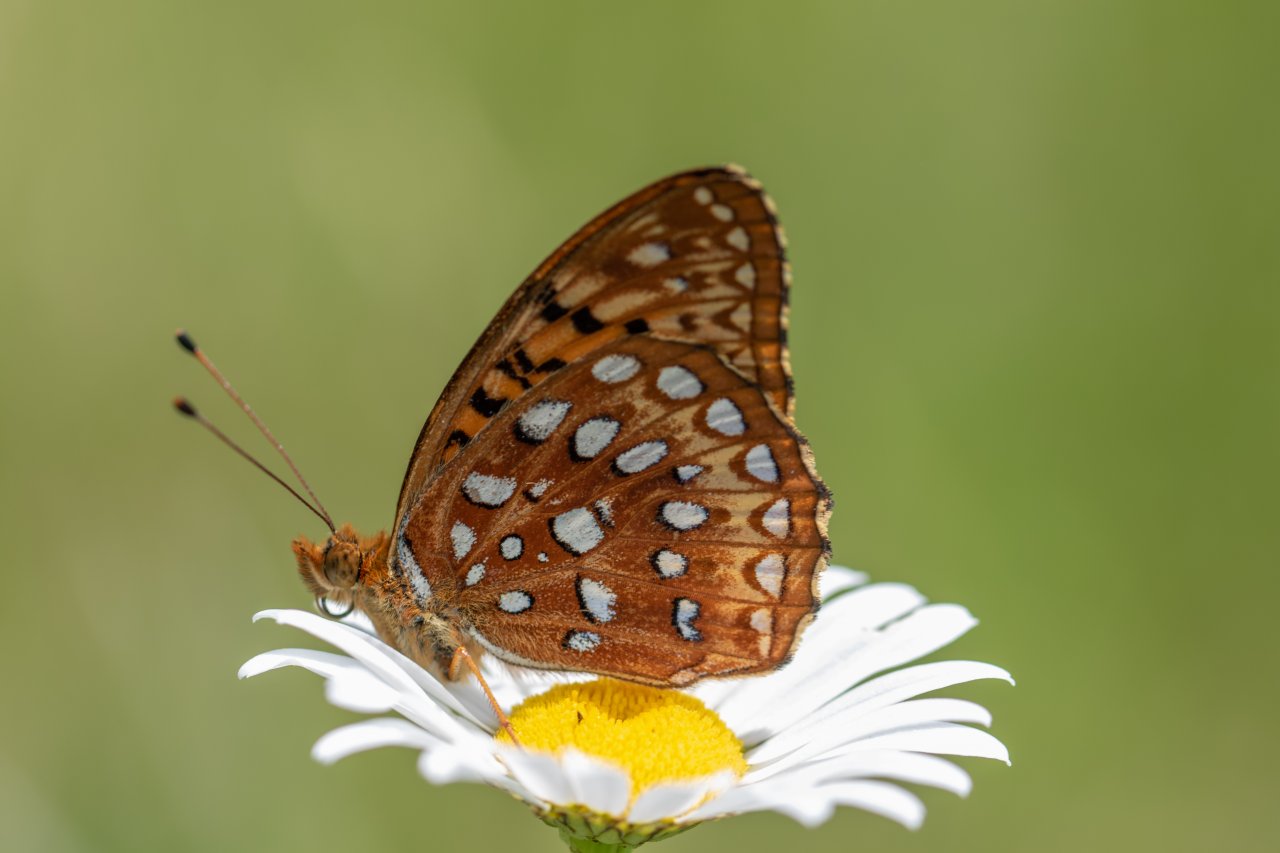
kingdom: Animalia
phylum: Arthropoda
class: Insecta
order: Lepidoptera
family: Nymphalidae
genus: Speyeria
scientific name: Speyeria aphrodite
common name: Aphrodite Fritillary
